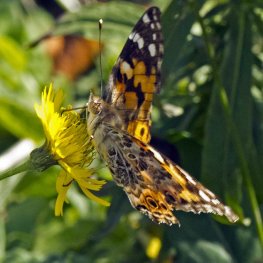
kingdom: Animalia
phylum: Arthropoda
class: Insecta
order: Lepidoptera
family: Nymphalidae
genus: Vanessa
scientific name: Vanessa cardui
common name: Painted Lady
